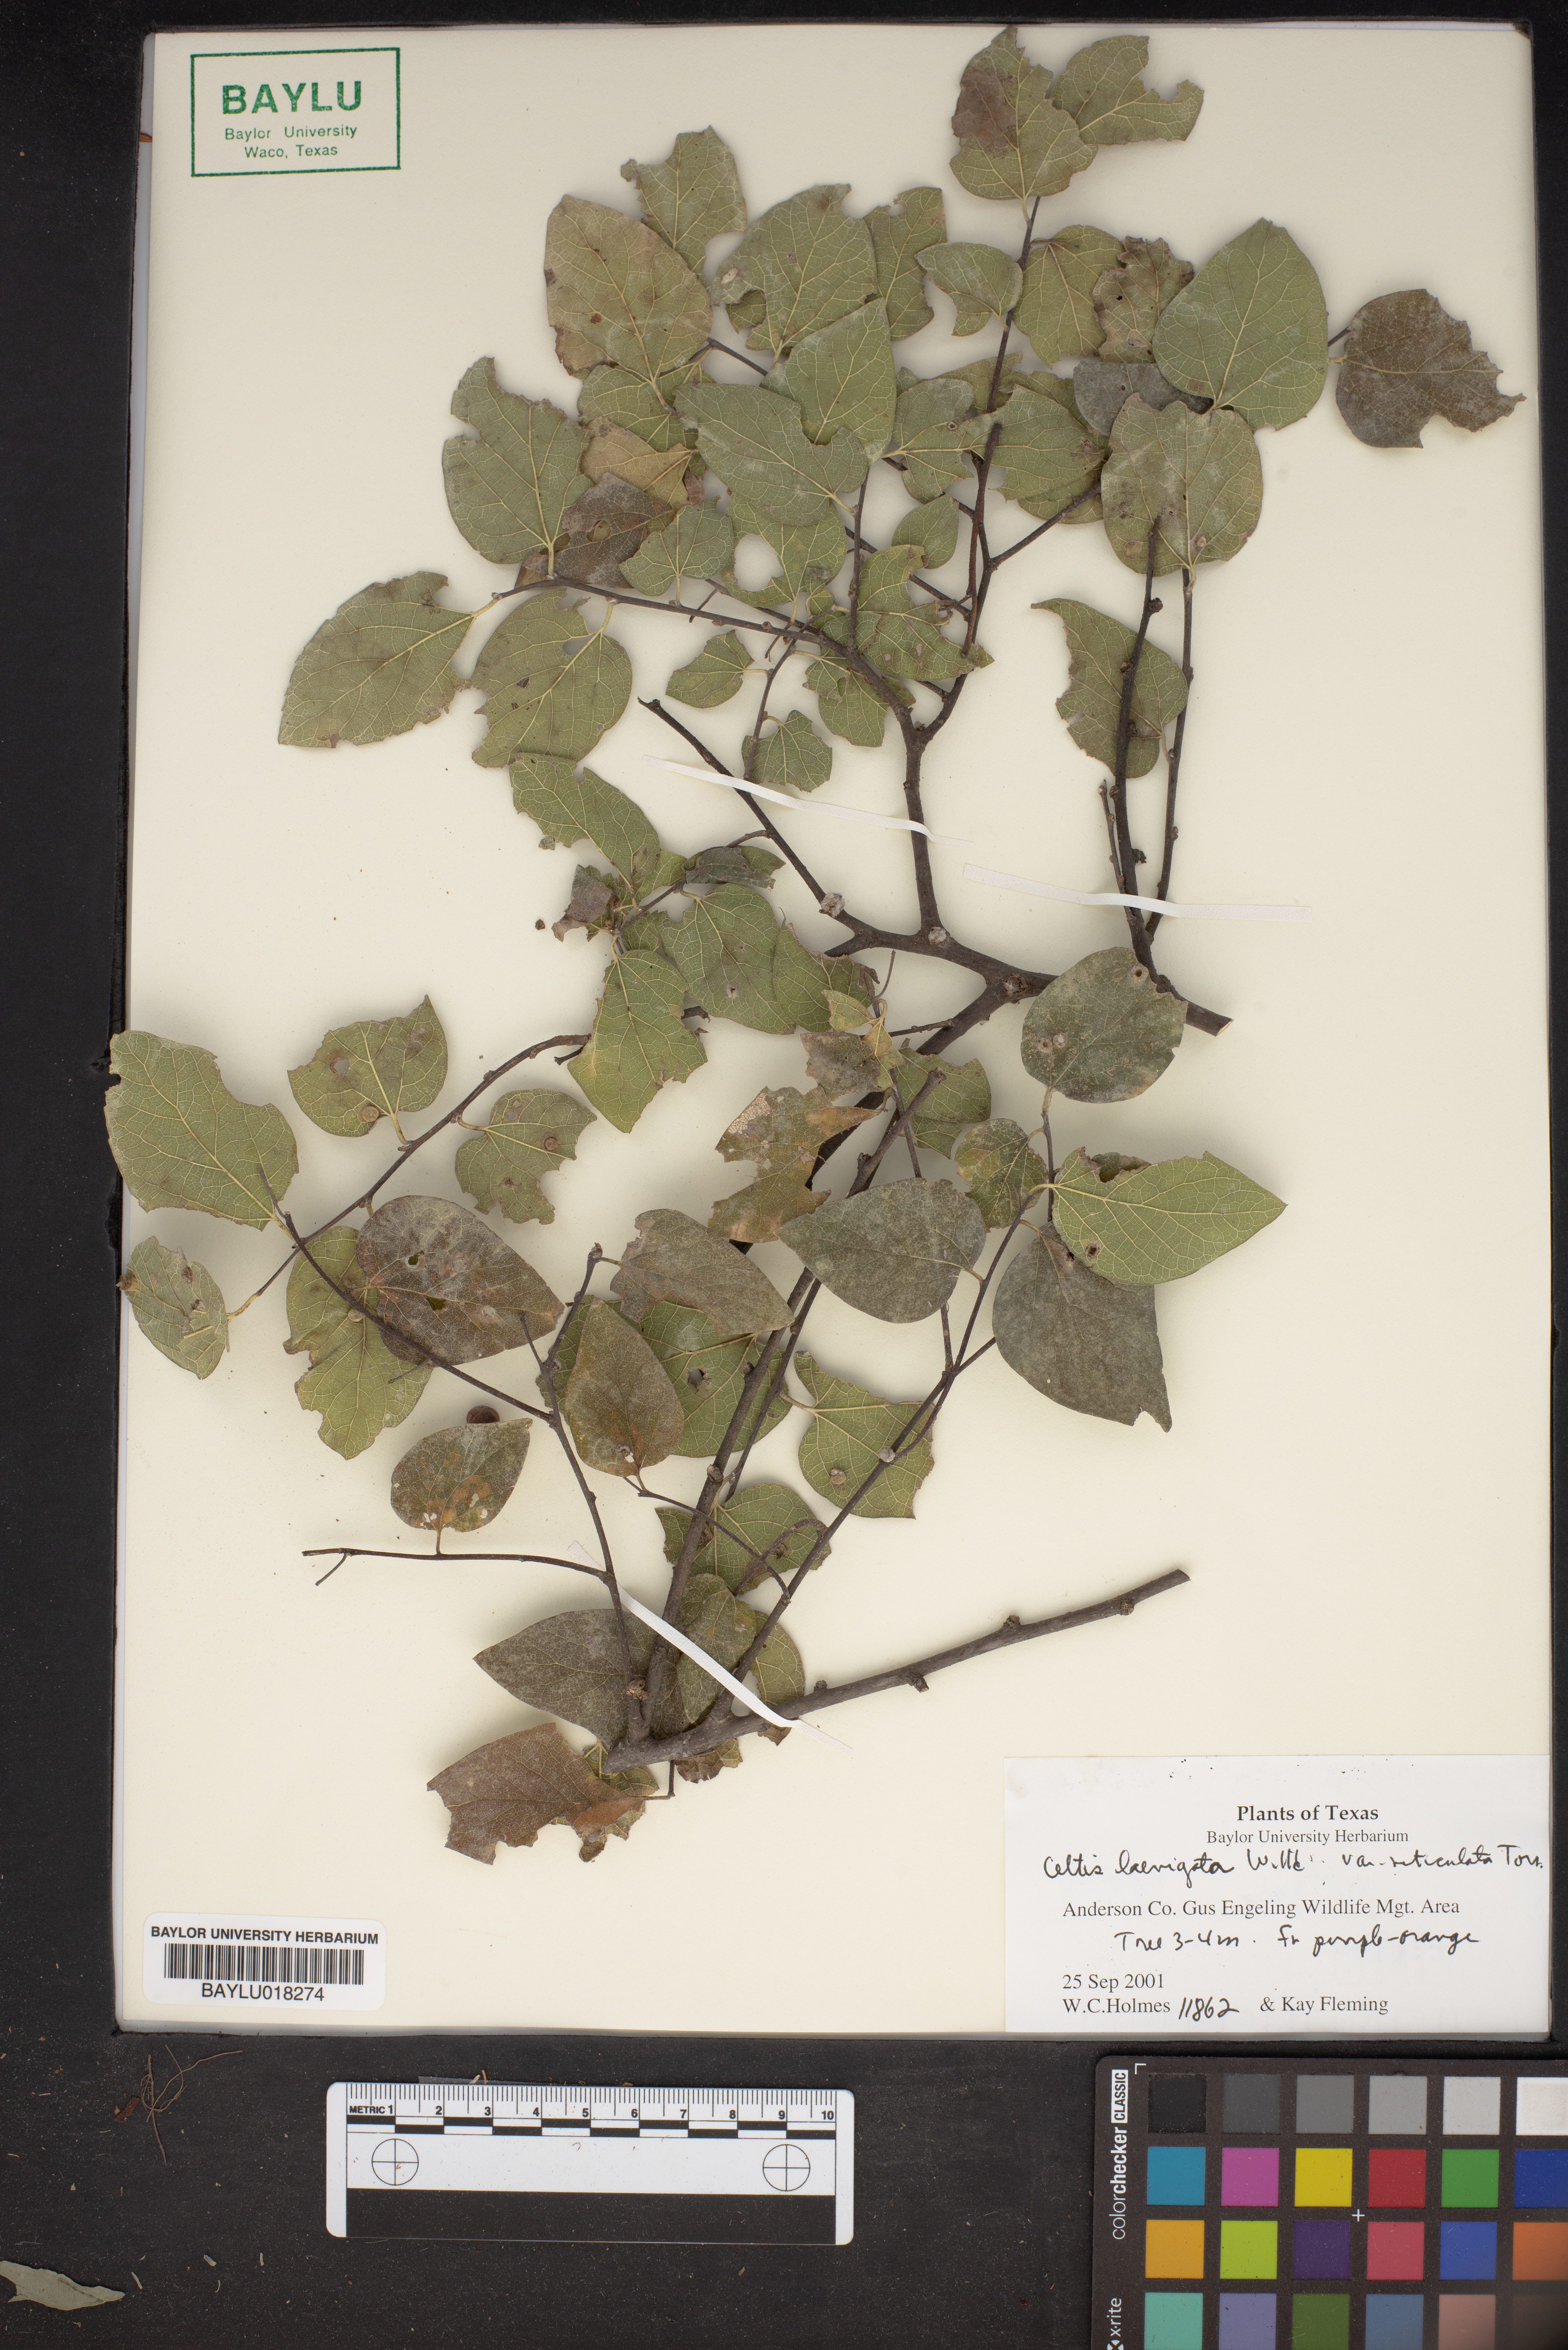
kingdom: Plantae
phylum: Tracheophyta
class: Magnoliopsida
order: Rosales
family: Cannabaceae
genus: Celtis
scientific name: Celtis reticulata
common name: Netleaf hackberry
